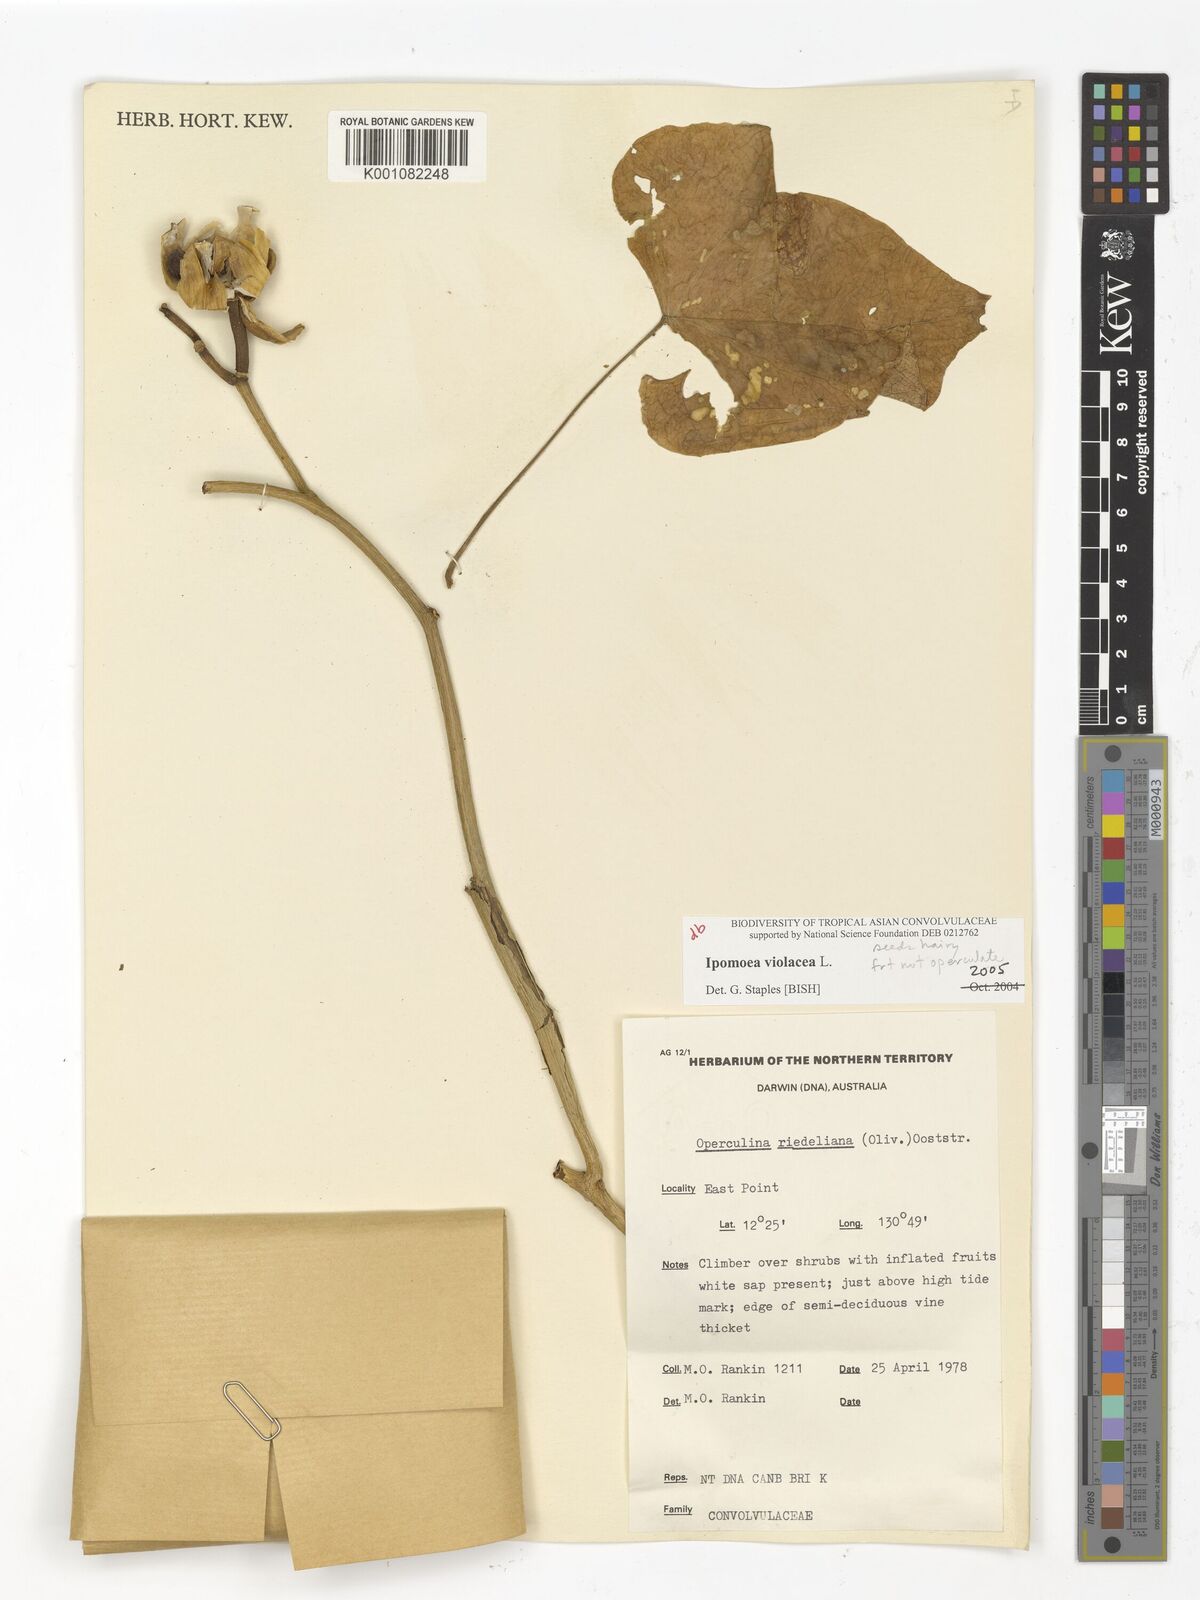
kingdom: Plantae
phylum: Tracheophyta
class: Magnoliopsida
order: Solanales
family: Convolvulaceae
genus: Ipomoea
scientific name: Ipomoea violacea
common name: Beach moonflower
